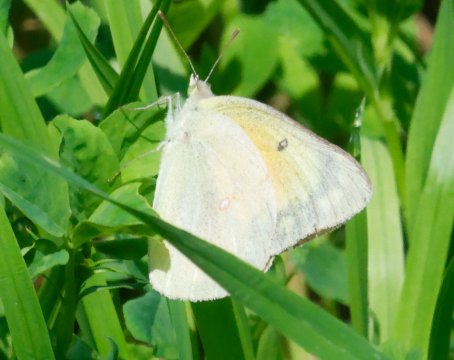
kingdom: Animalia
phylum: Arthropoda
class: Insecta
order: Lepidoptera
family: Pieridae
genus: Colias
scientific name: Colias eurytheme
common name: Orange Sulphur
